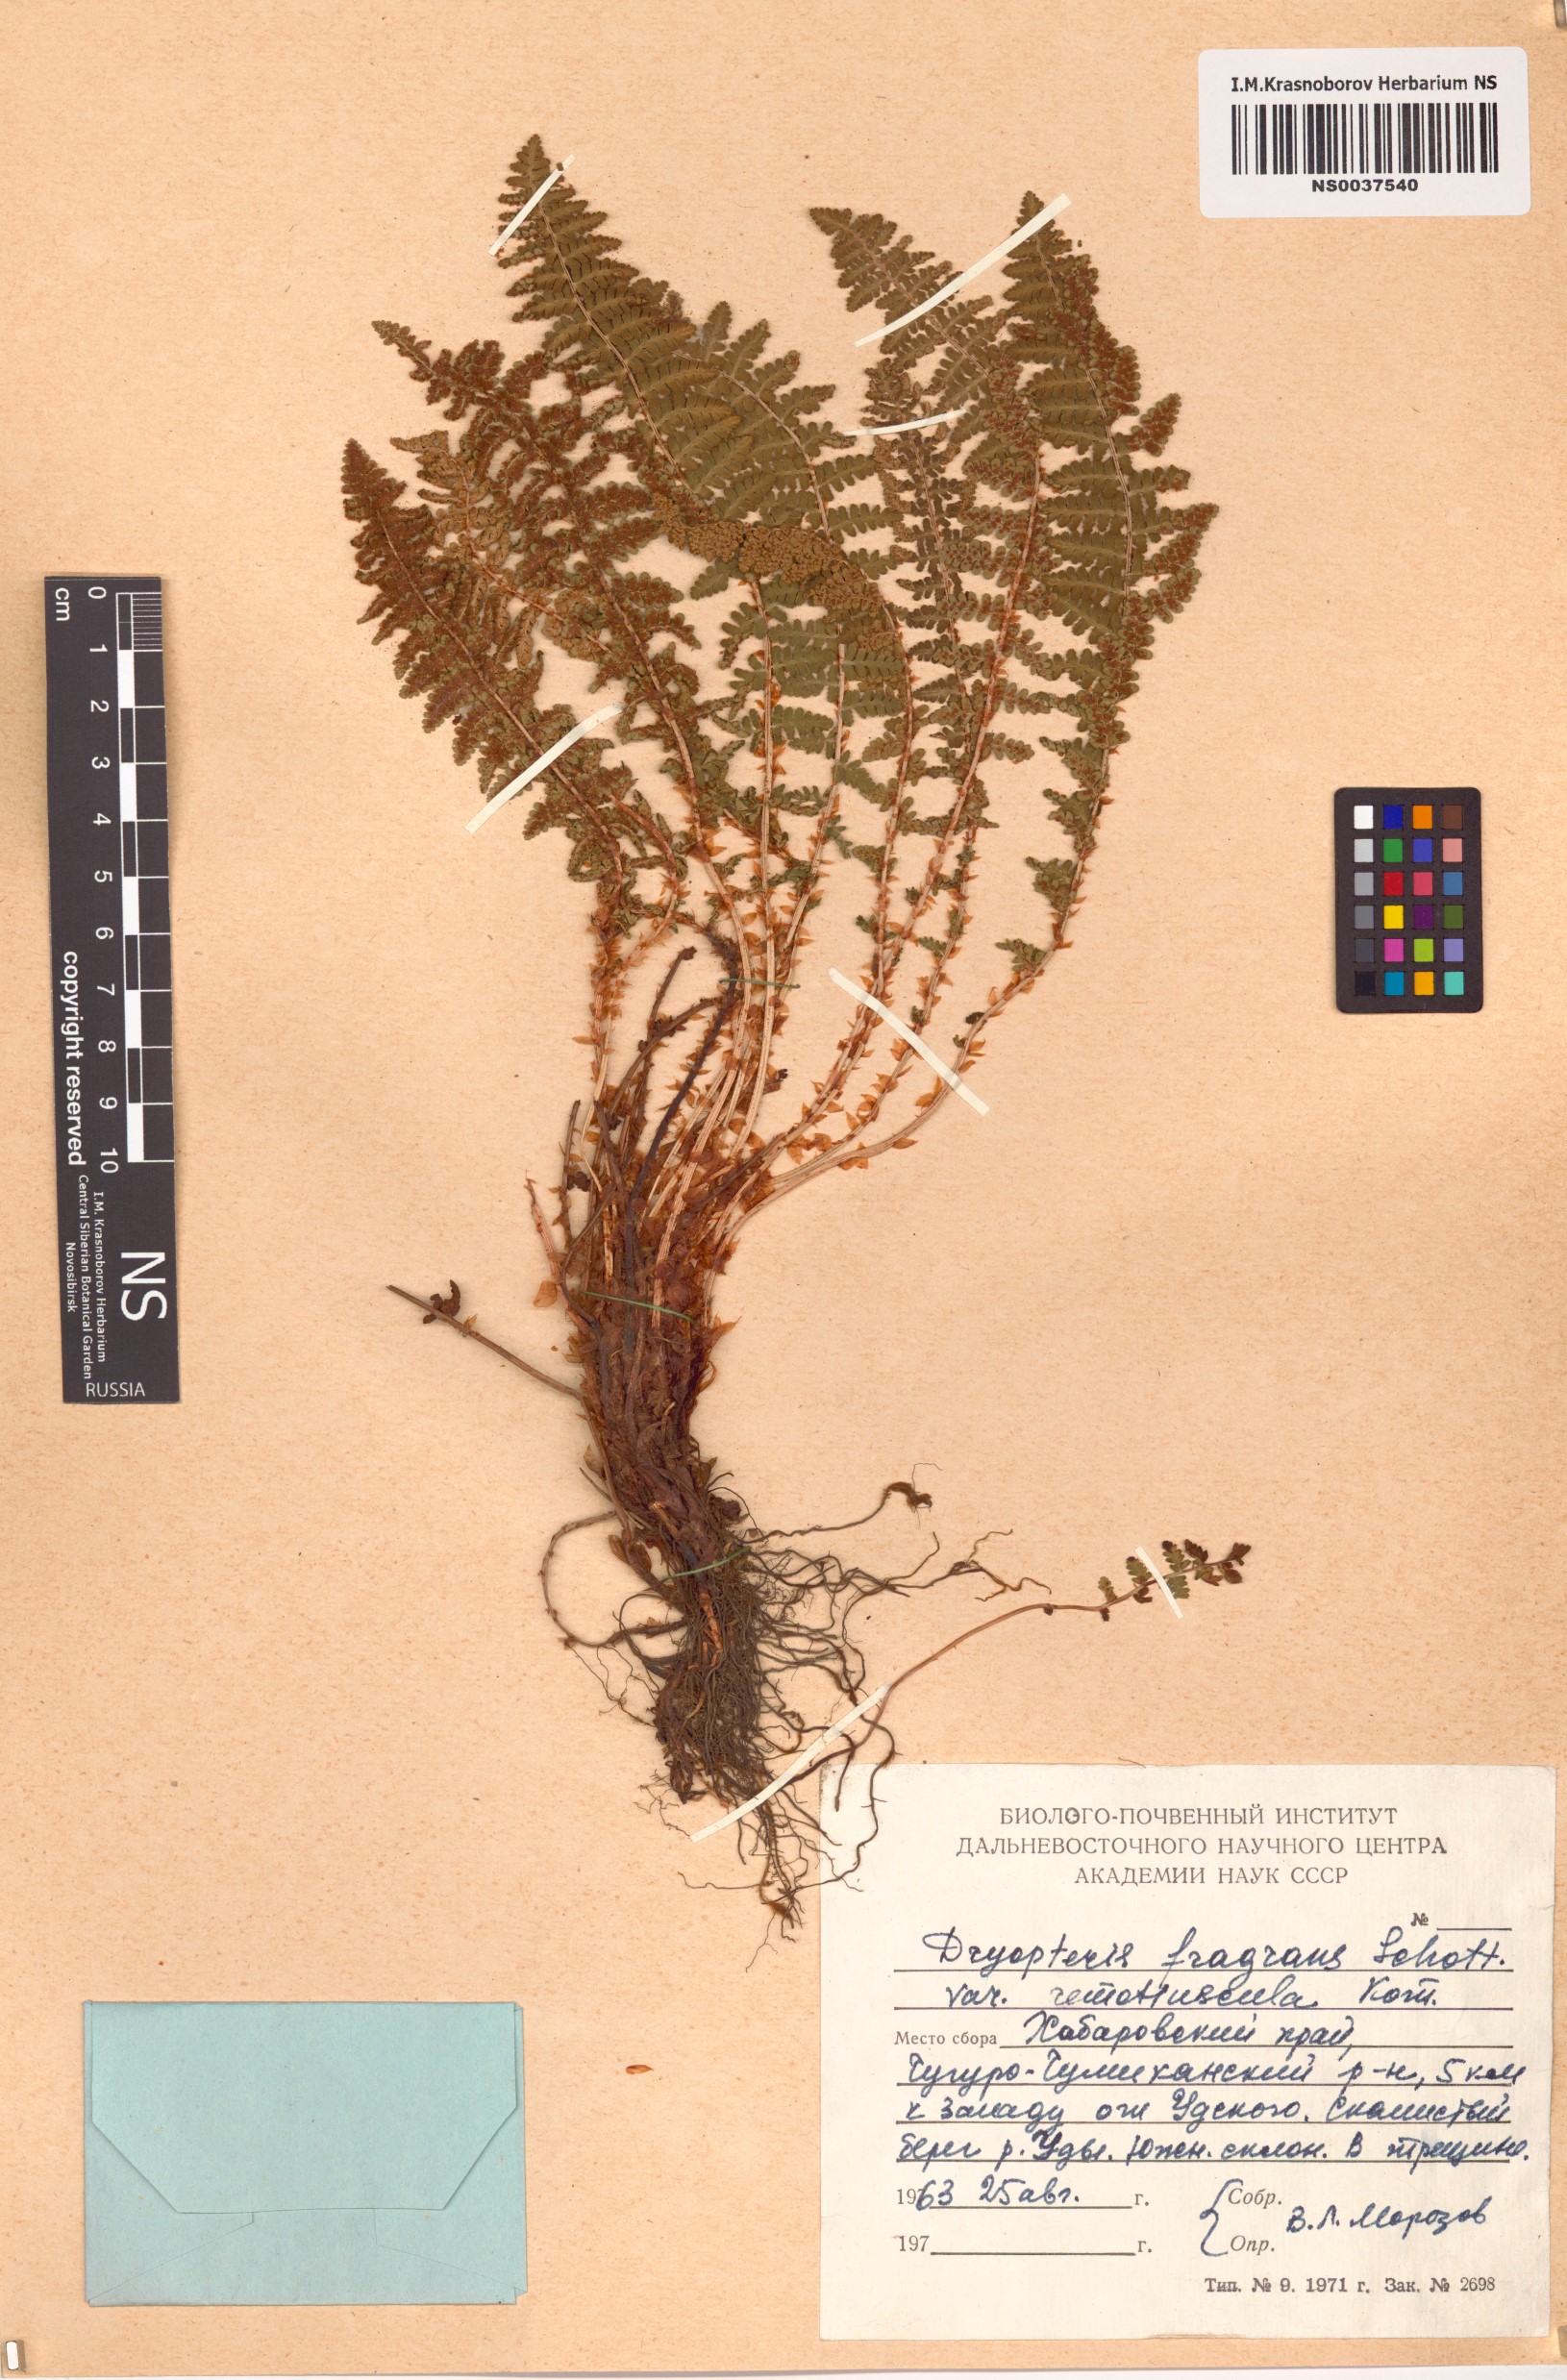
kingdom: Plantae
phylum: Tracheophyta
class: Polypodiopsida
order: Polypodiales
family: Dryopteridaceae
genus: Dryopteris
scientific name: Dryopteris fragrans
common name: Fragrant wood fern
